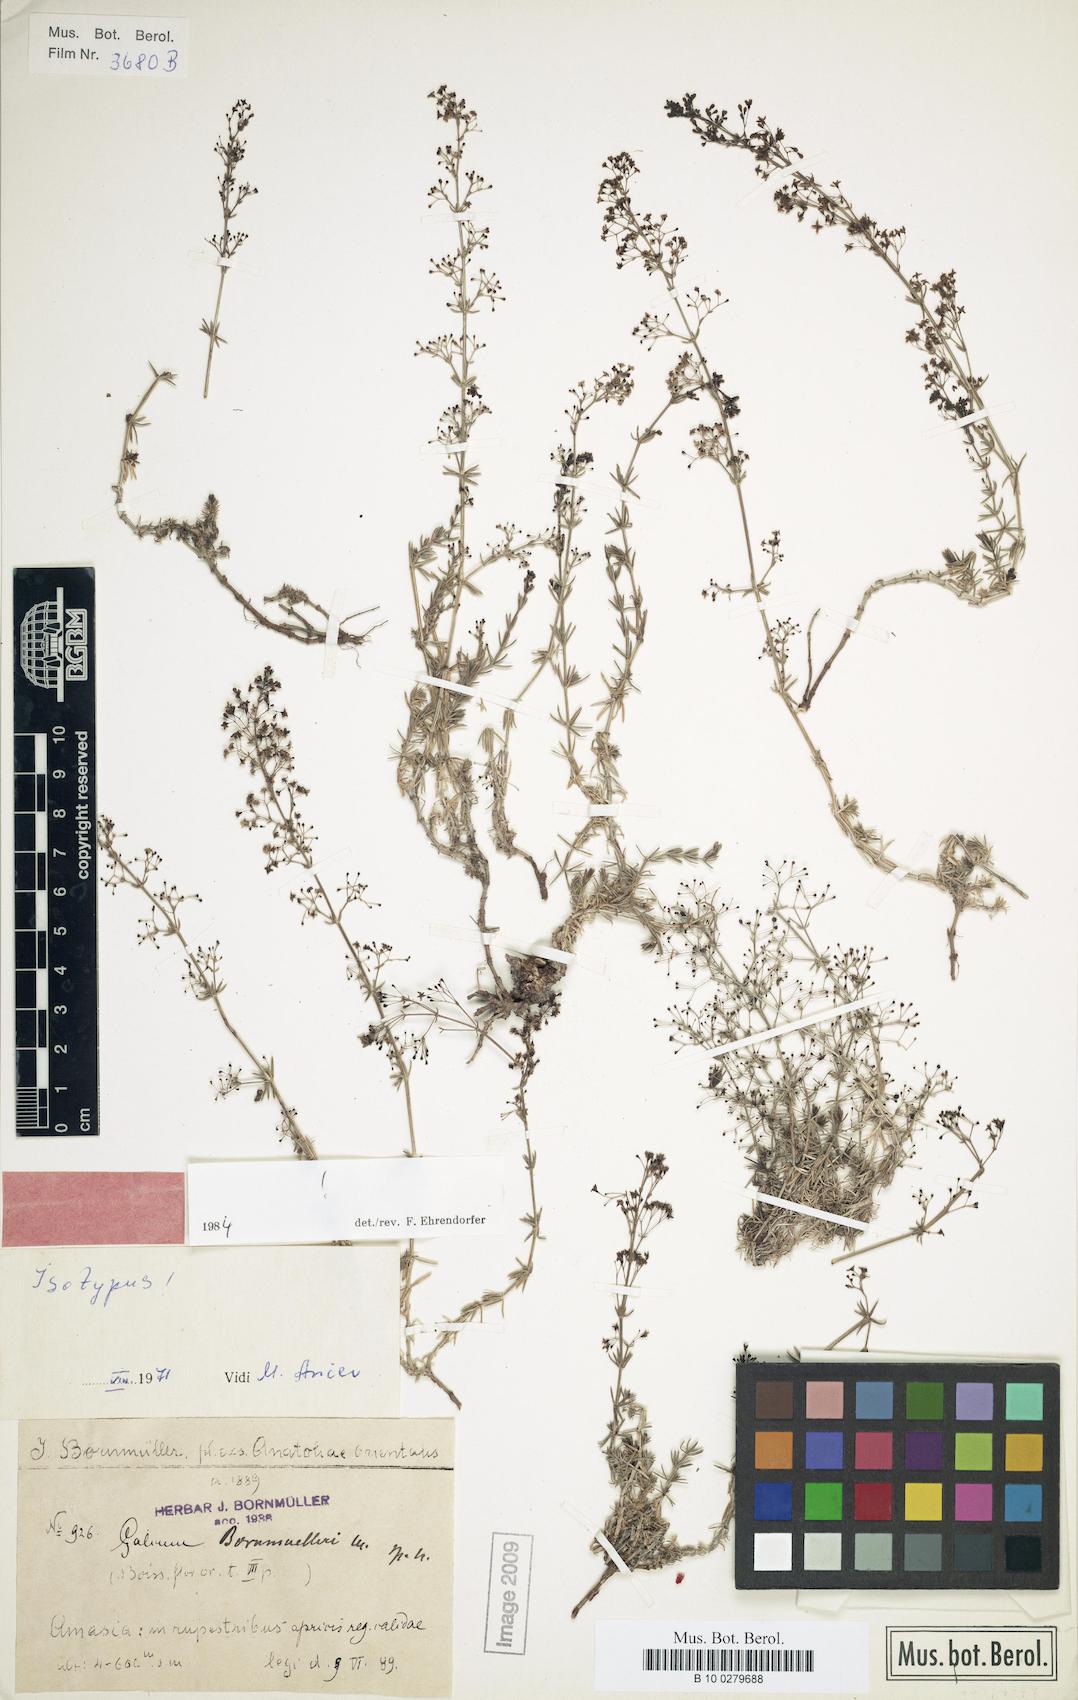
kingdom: Plantae
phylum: Tracheophyta
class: Magnoliopsida
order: Gentianales
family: Rubiaceae
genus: Galium
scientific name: Galium bornmuelleri
